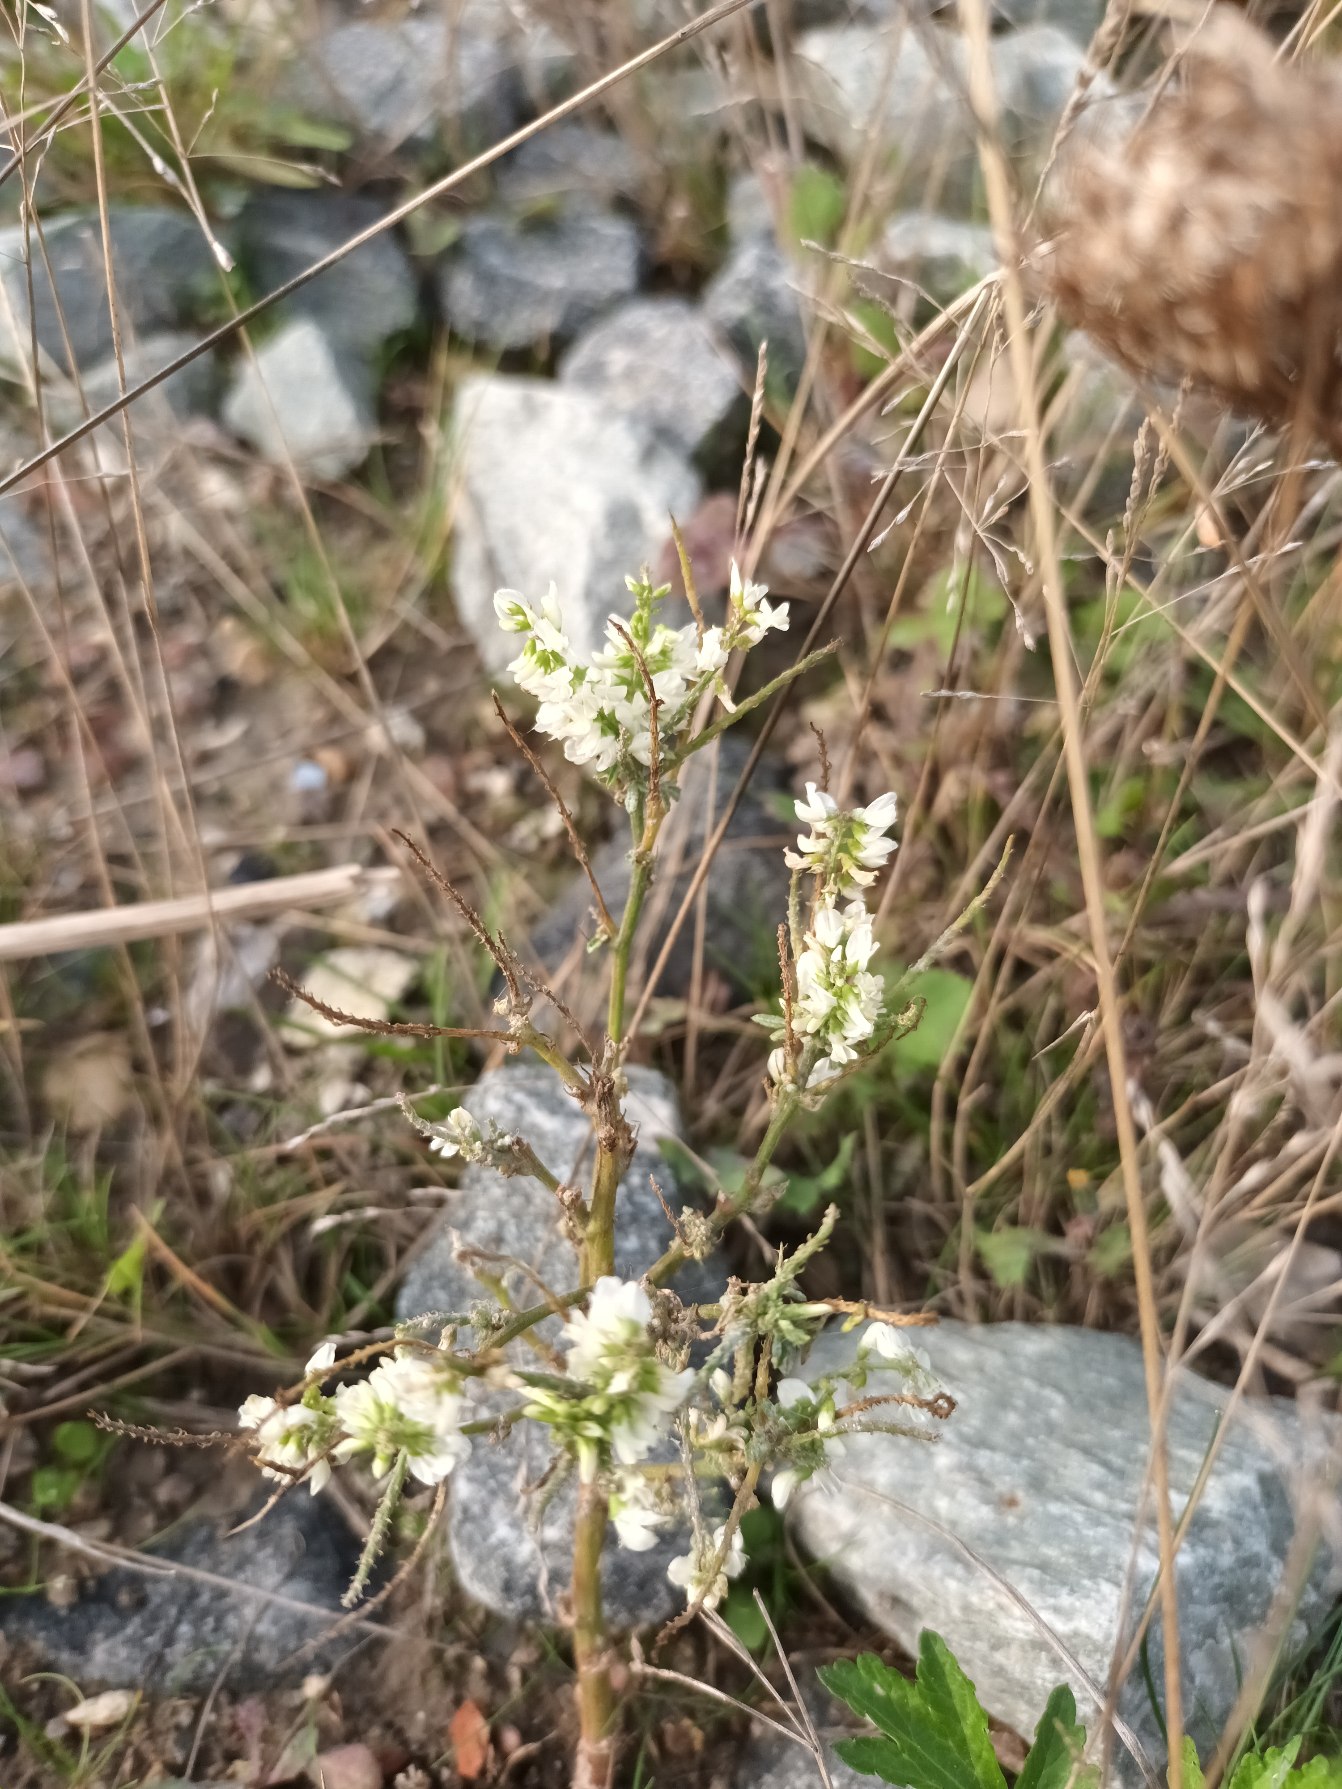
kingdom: Plantae
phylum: Tracheophyta
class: Magnoliopsida
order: Fabales
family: Fabaceae
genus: Melilotus
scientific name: Melilotus albus
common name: Hvid stenkløver
